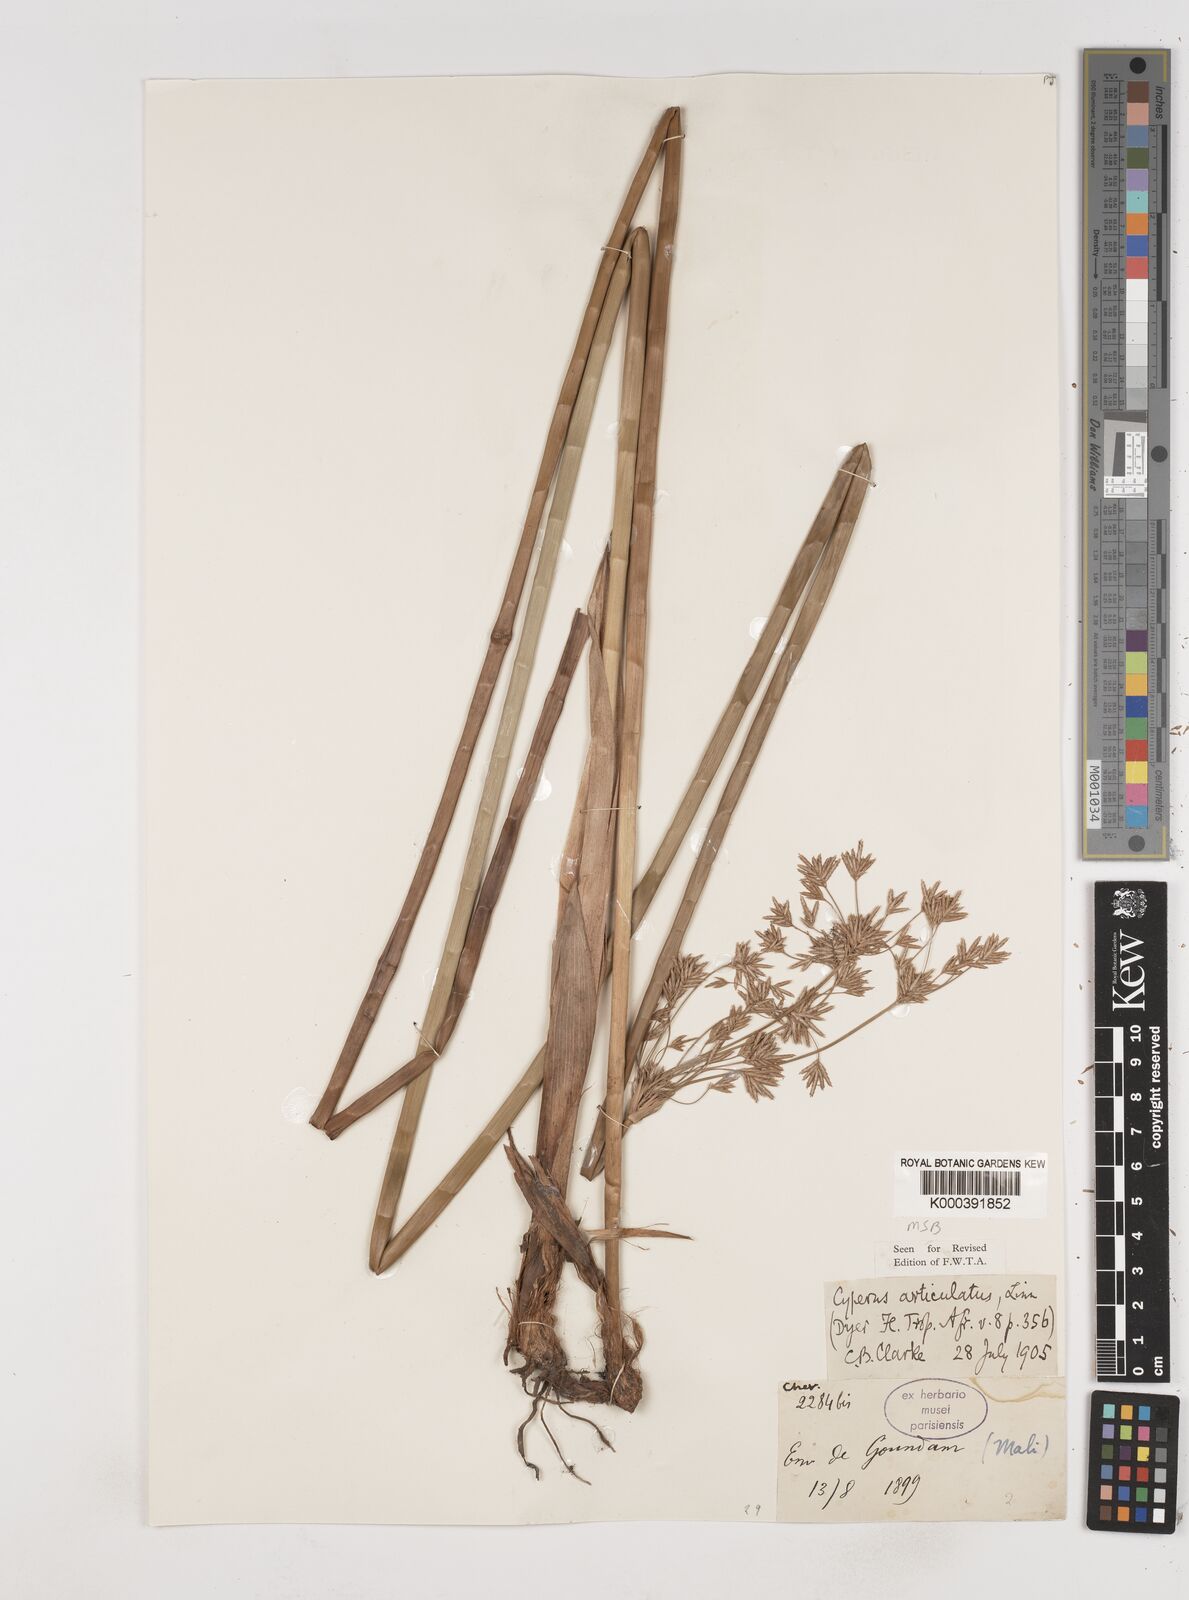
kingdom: Plantae
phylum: Tracheophyta
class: Liliopsida
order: Poales
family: Cyperaceae
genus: Cyperus
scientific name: Cyperus articulatus
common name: Jointed flatsedge
